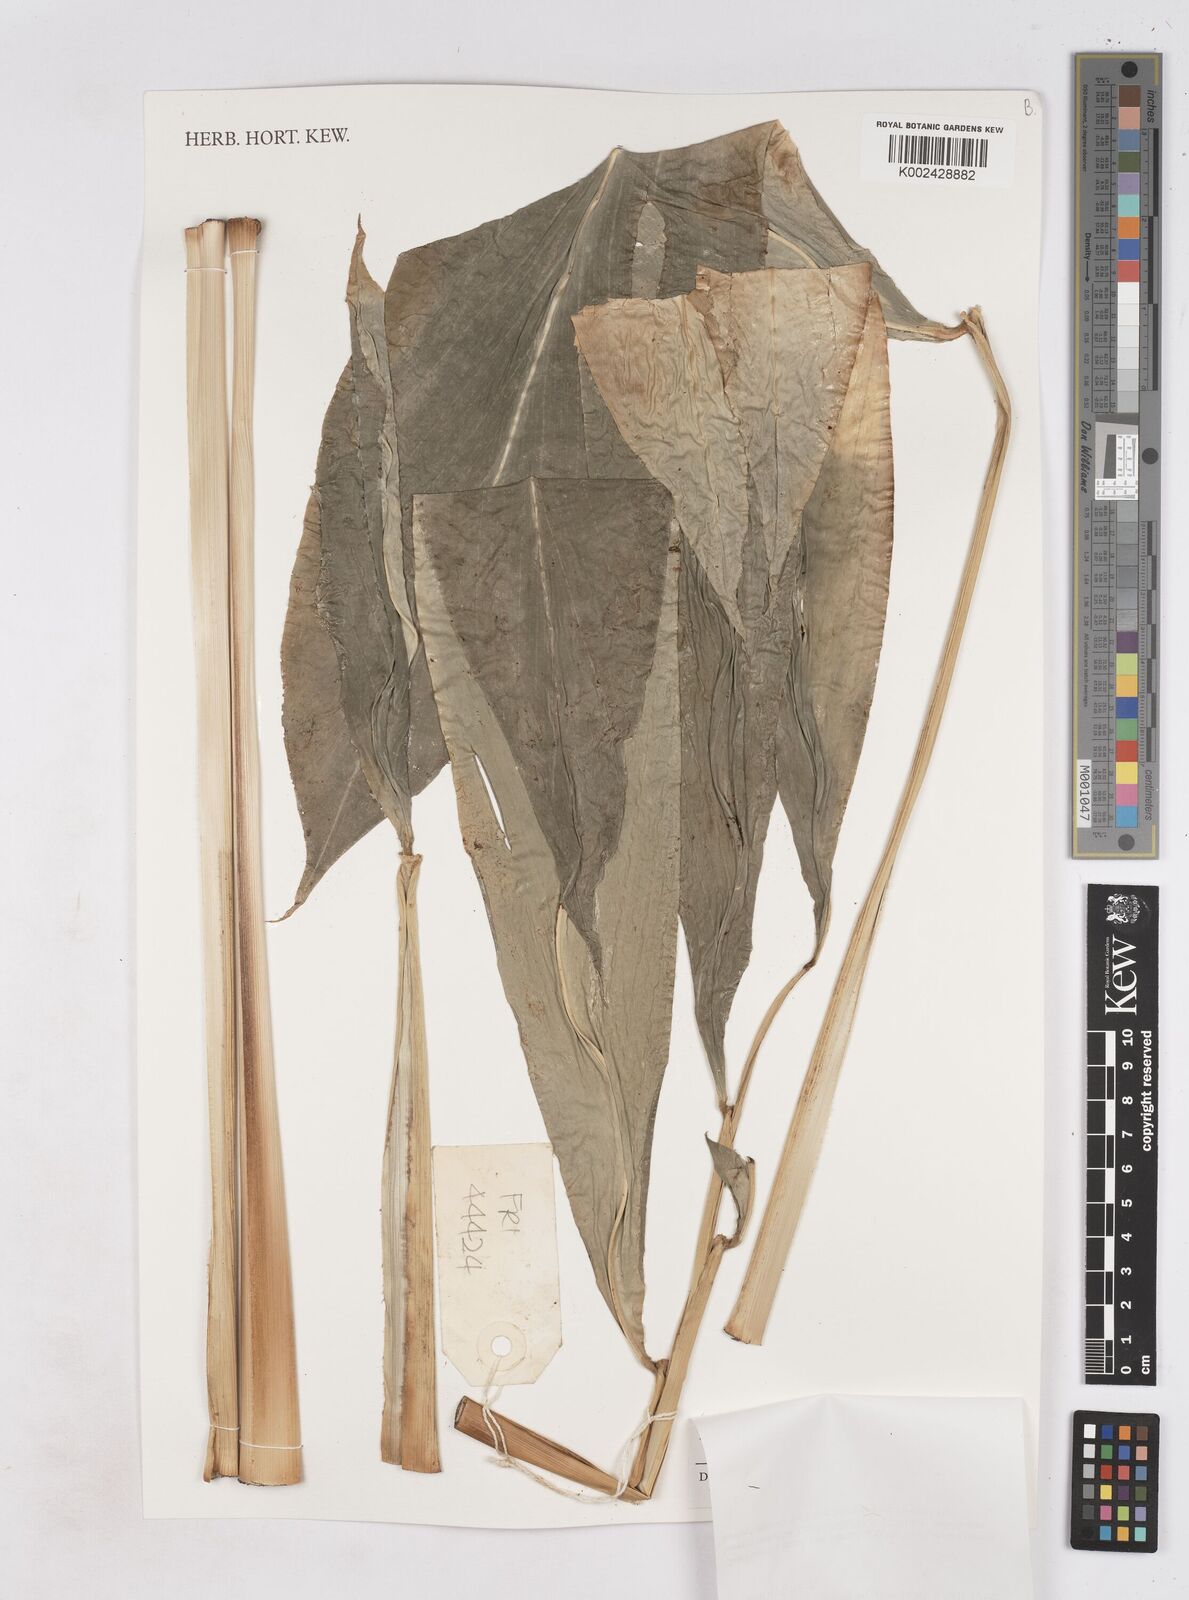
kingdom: Plantae
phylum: Tracheophyta
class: Liliopsida
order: Zingiberales
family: Zingiberaceae
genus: Zingiber
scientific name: Zingiber
